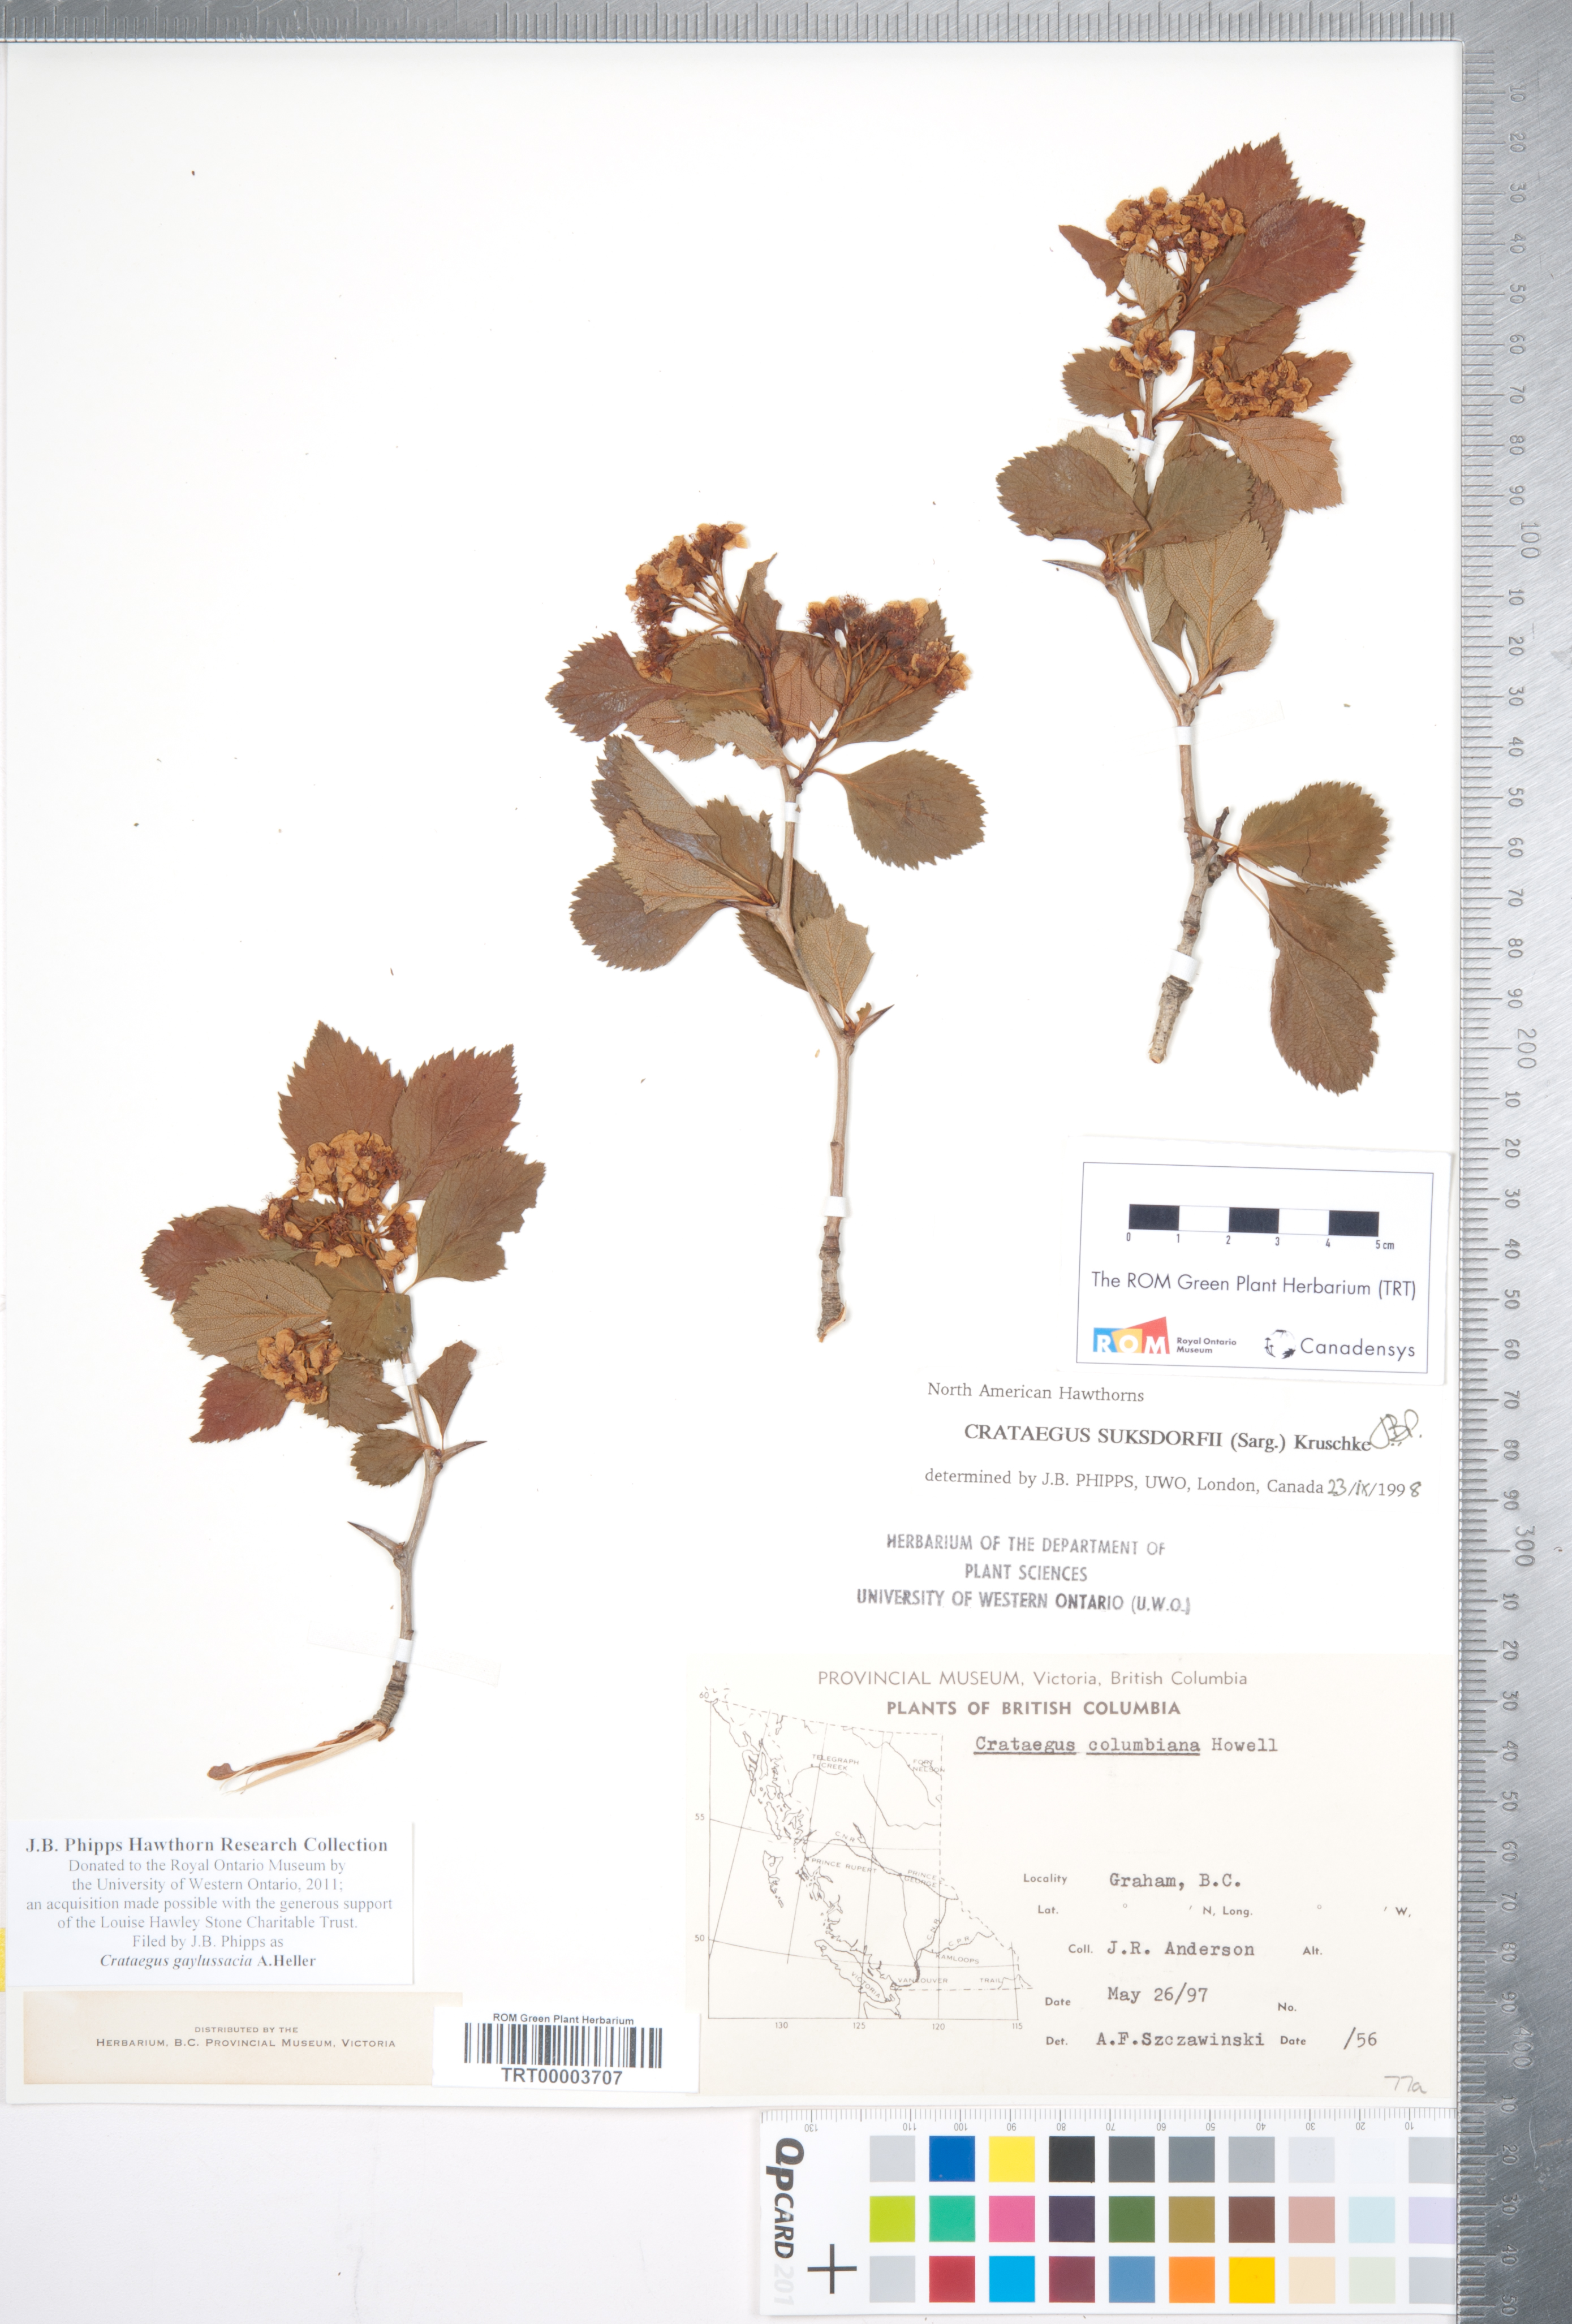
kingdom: Plantae
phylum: Tracheophyta
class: Magnoliopsida
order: Rosales
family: Rosaceae
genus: Crataegus
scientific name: Crataegus gaylussacia
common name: Huckleberry hawthorn
